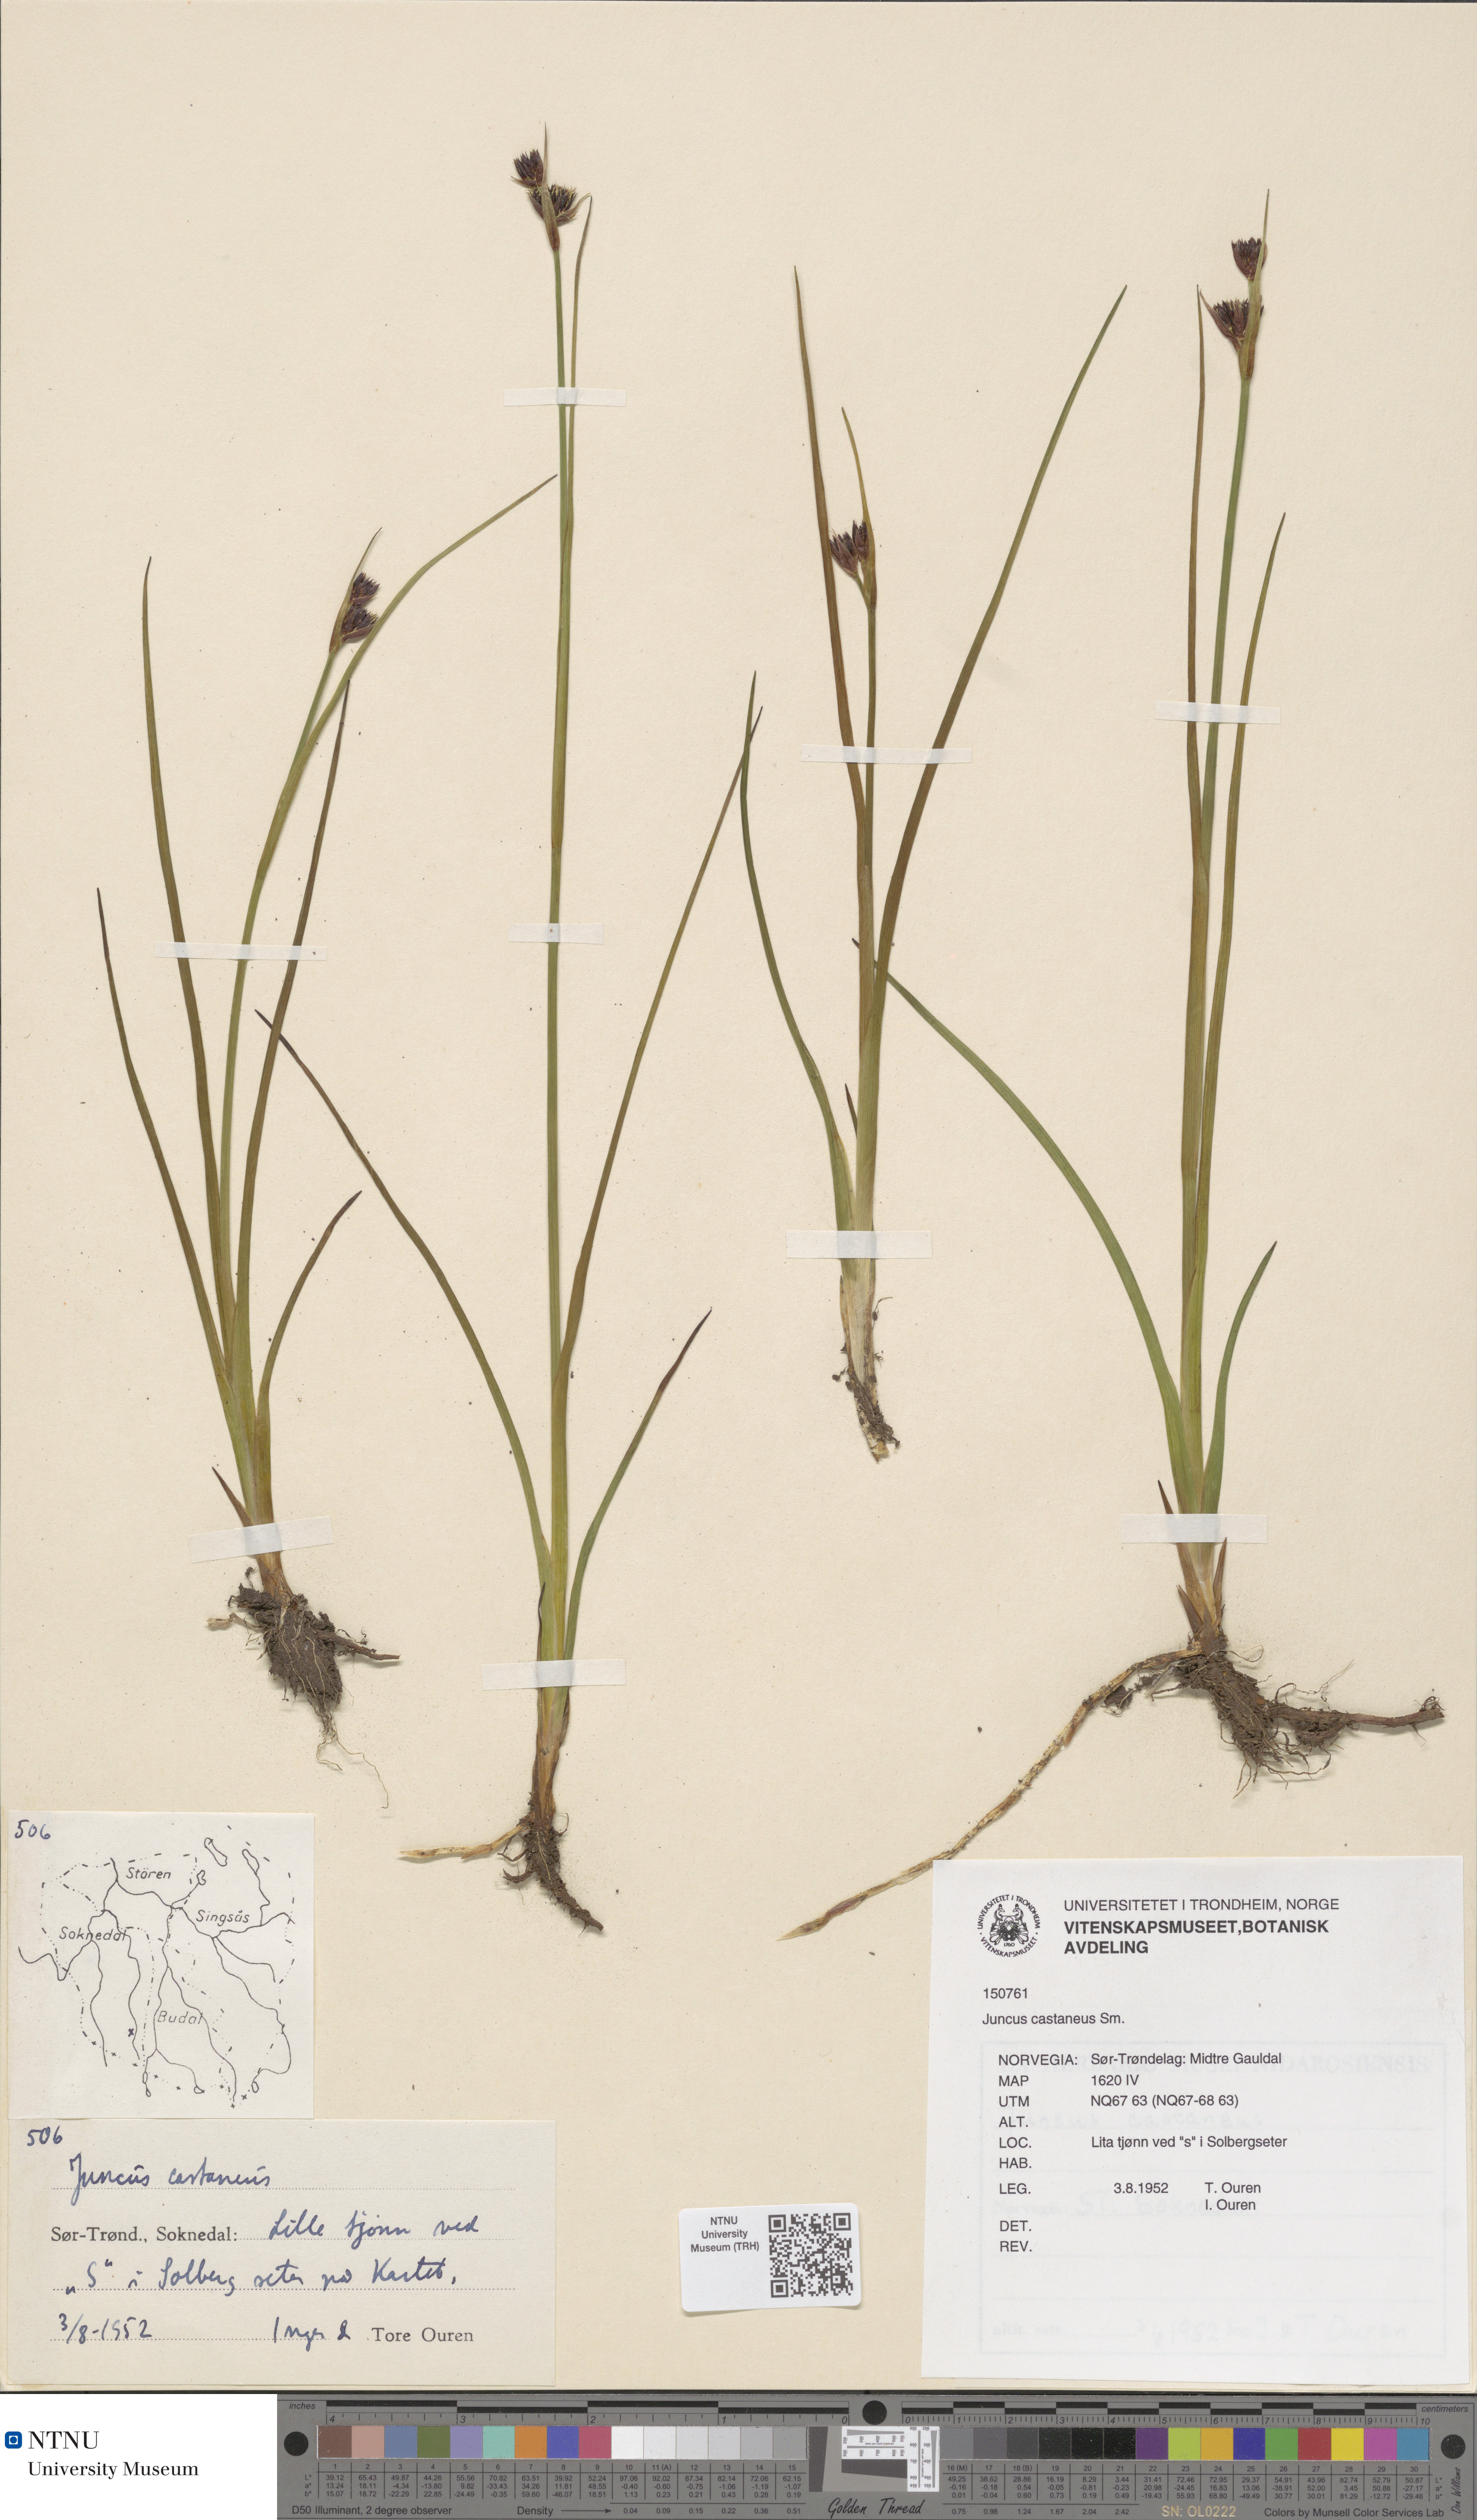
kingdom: Plantae
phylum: Tracheophyta
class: Liliopsida
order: Poales
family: Juncaceae
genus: Juncus
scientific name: Juncus castaneus
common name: Chestnut rush
